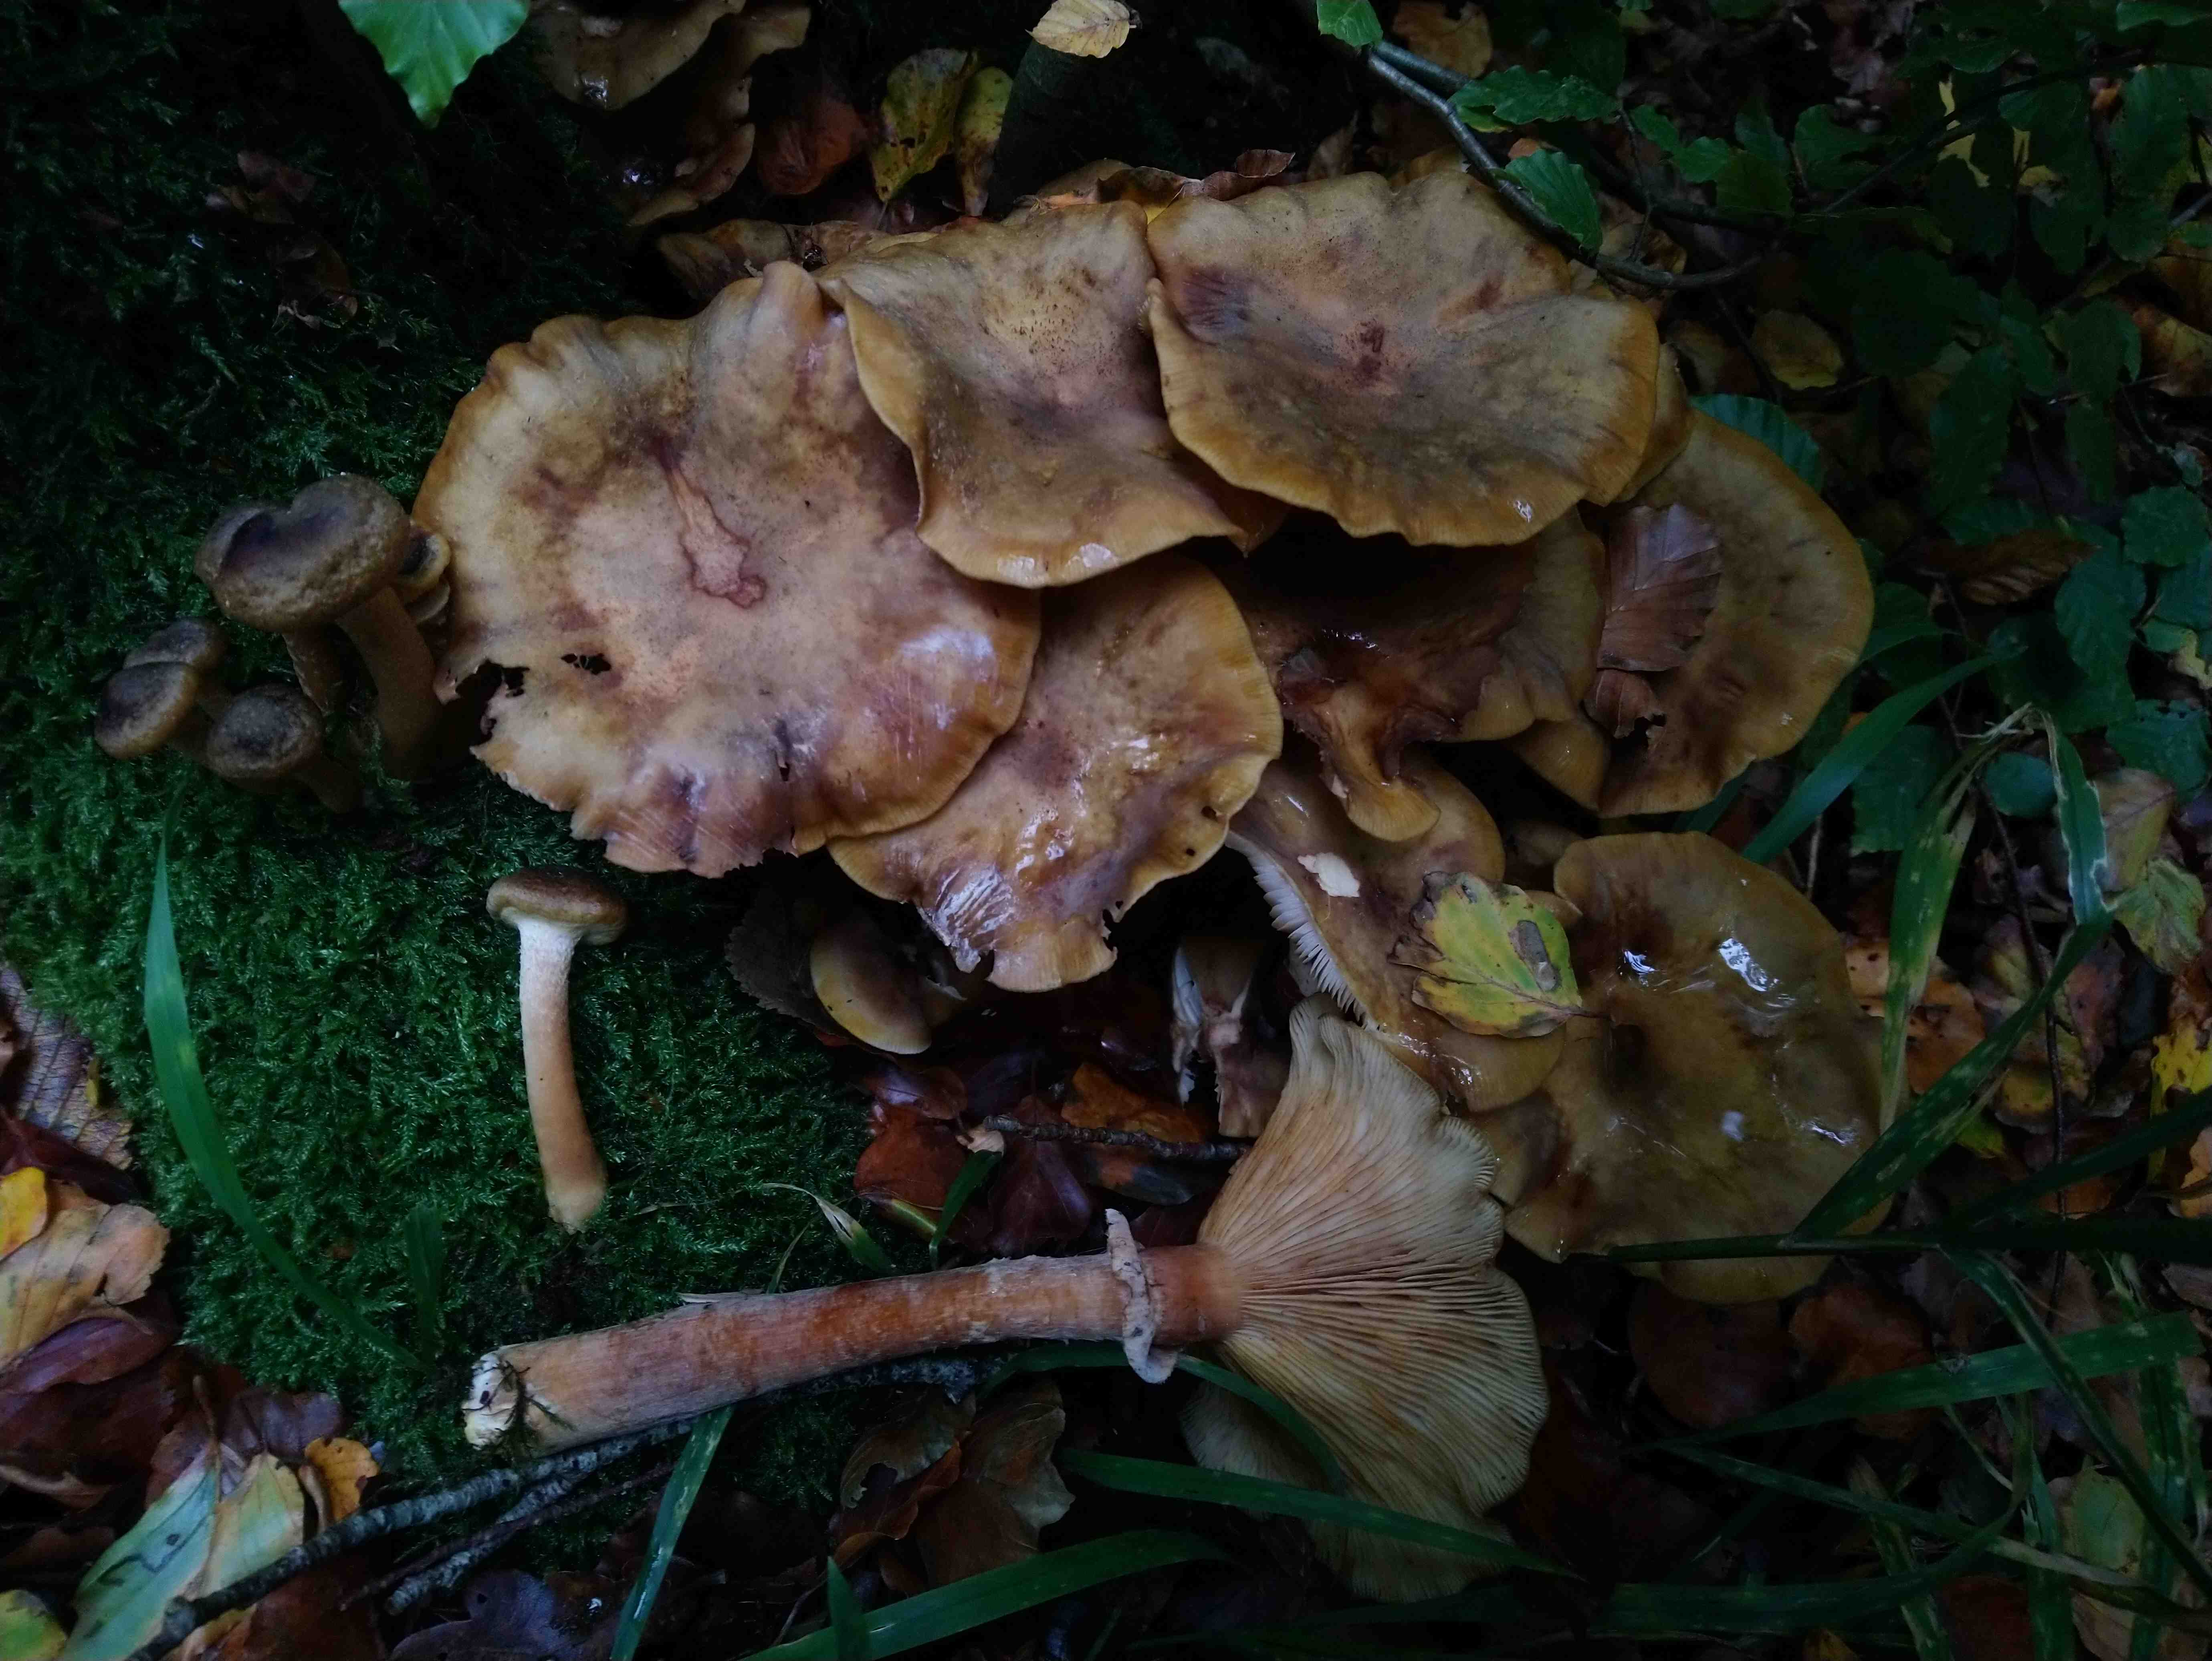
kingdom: Fungi
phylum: Basidiomycota
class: Agaricomycetes
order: Agaricales
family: Physalacriaceae
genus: Armillaria
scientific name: Armillaria mellea
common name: ægte honningsvamp
